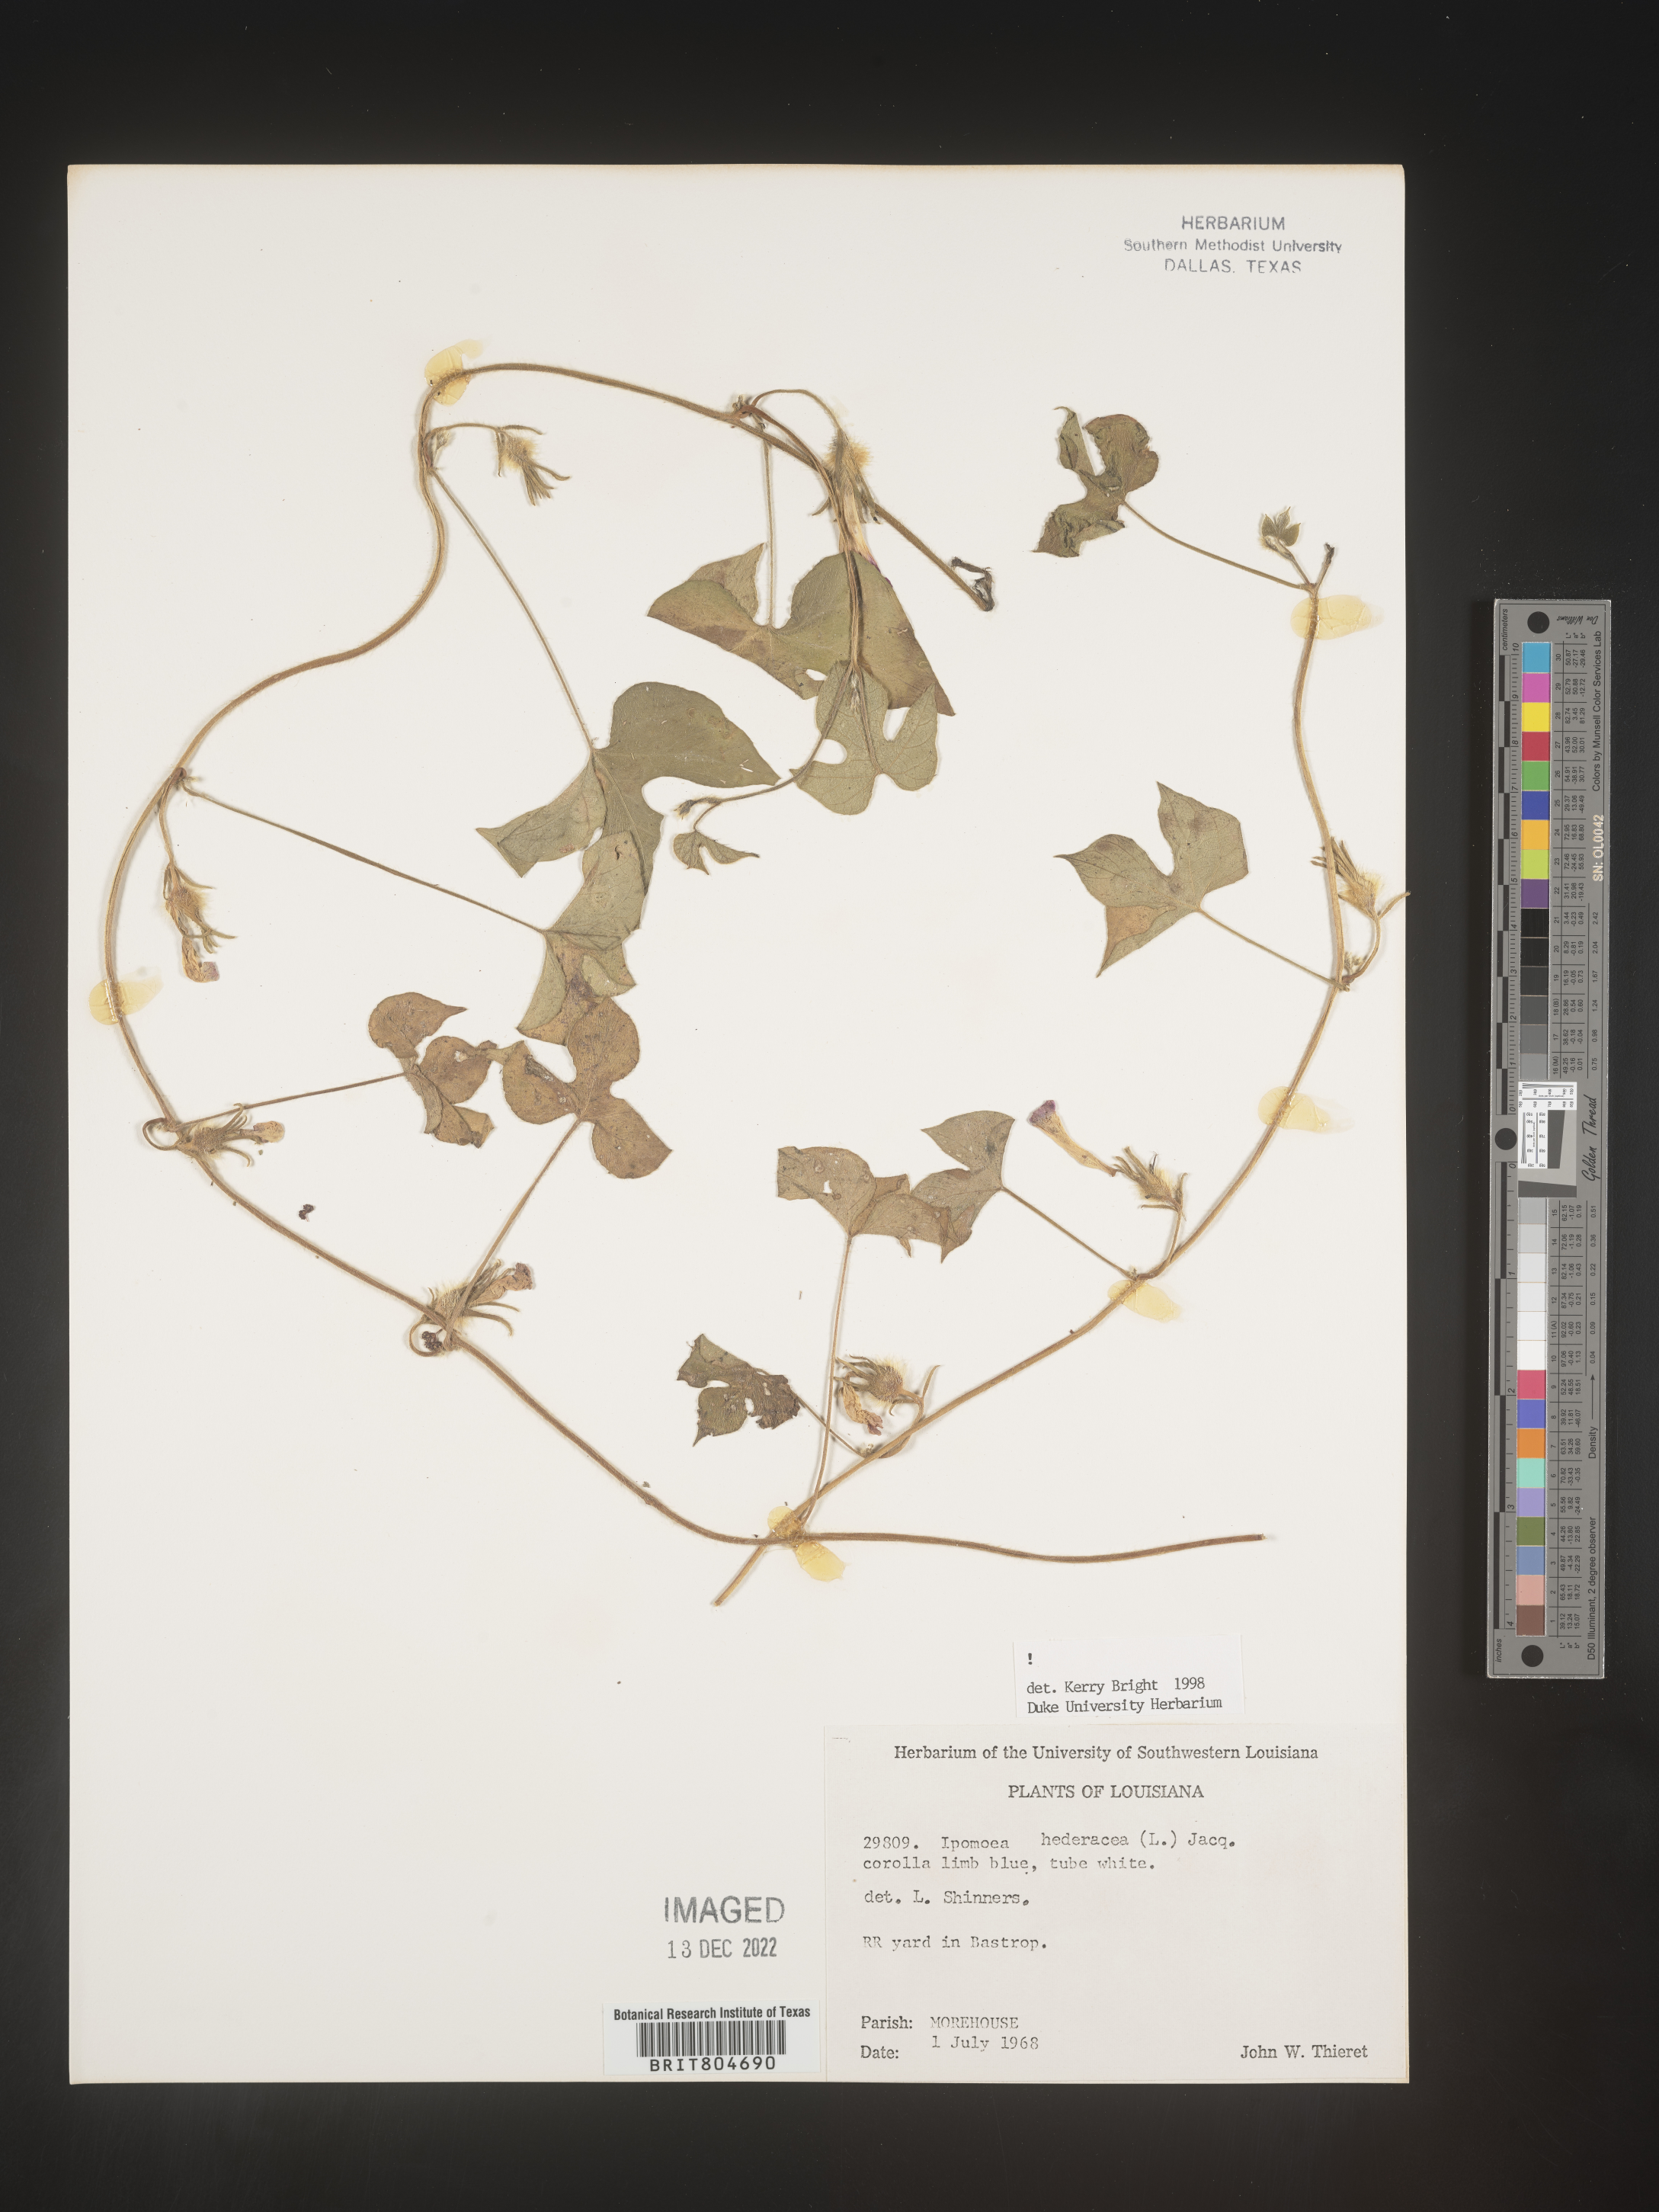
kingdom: Plantae
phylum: Tracheophyta
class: Magnoliopsida
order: Solanales
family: Convolvulaceae
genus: Ipomoea
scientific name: Ipomoea hederacea
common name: Ivy-leaved morning-glory
